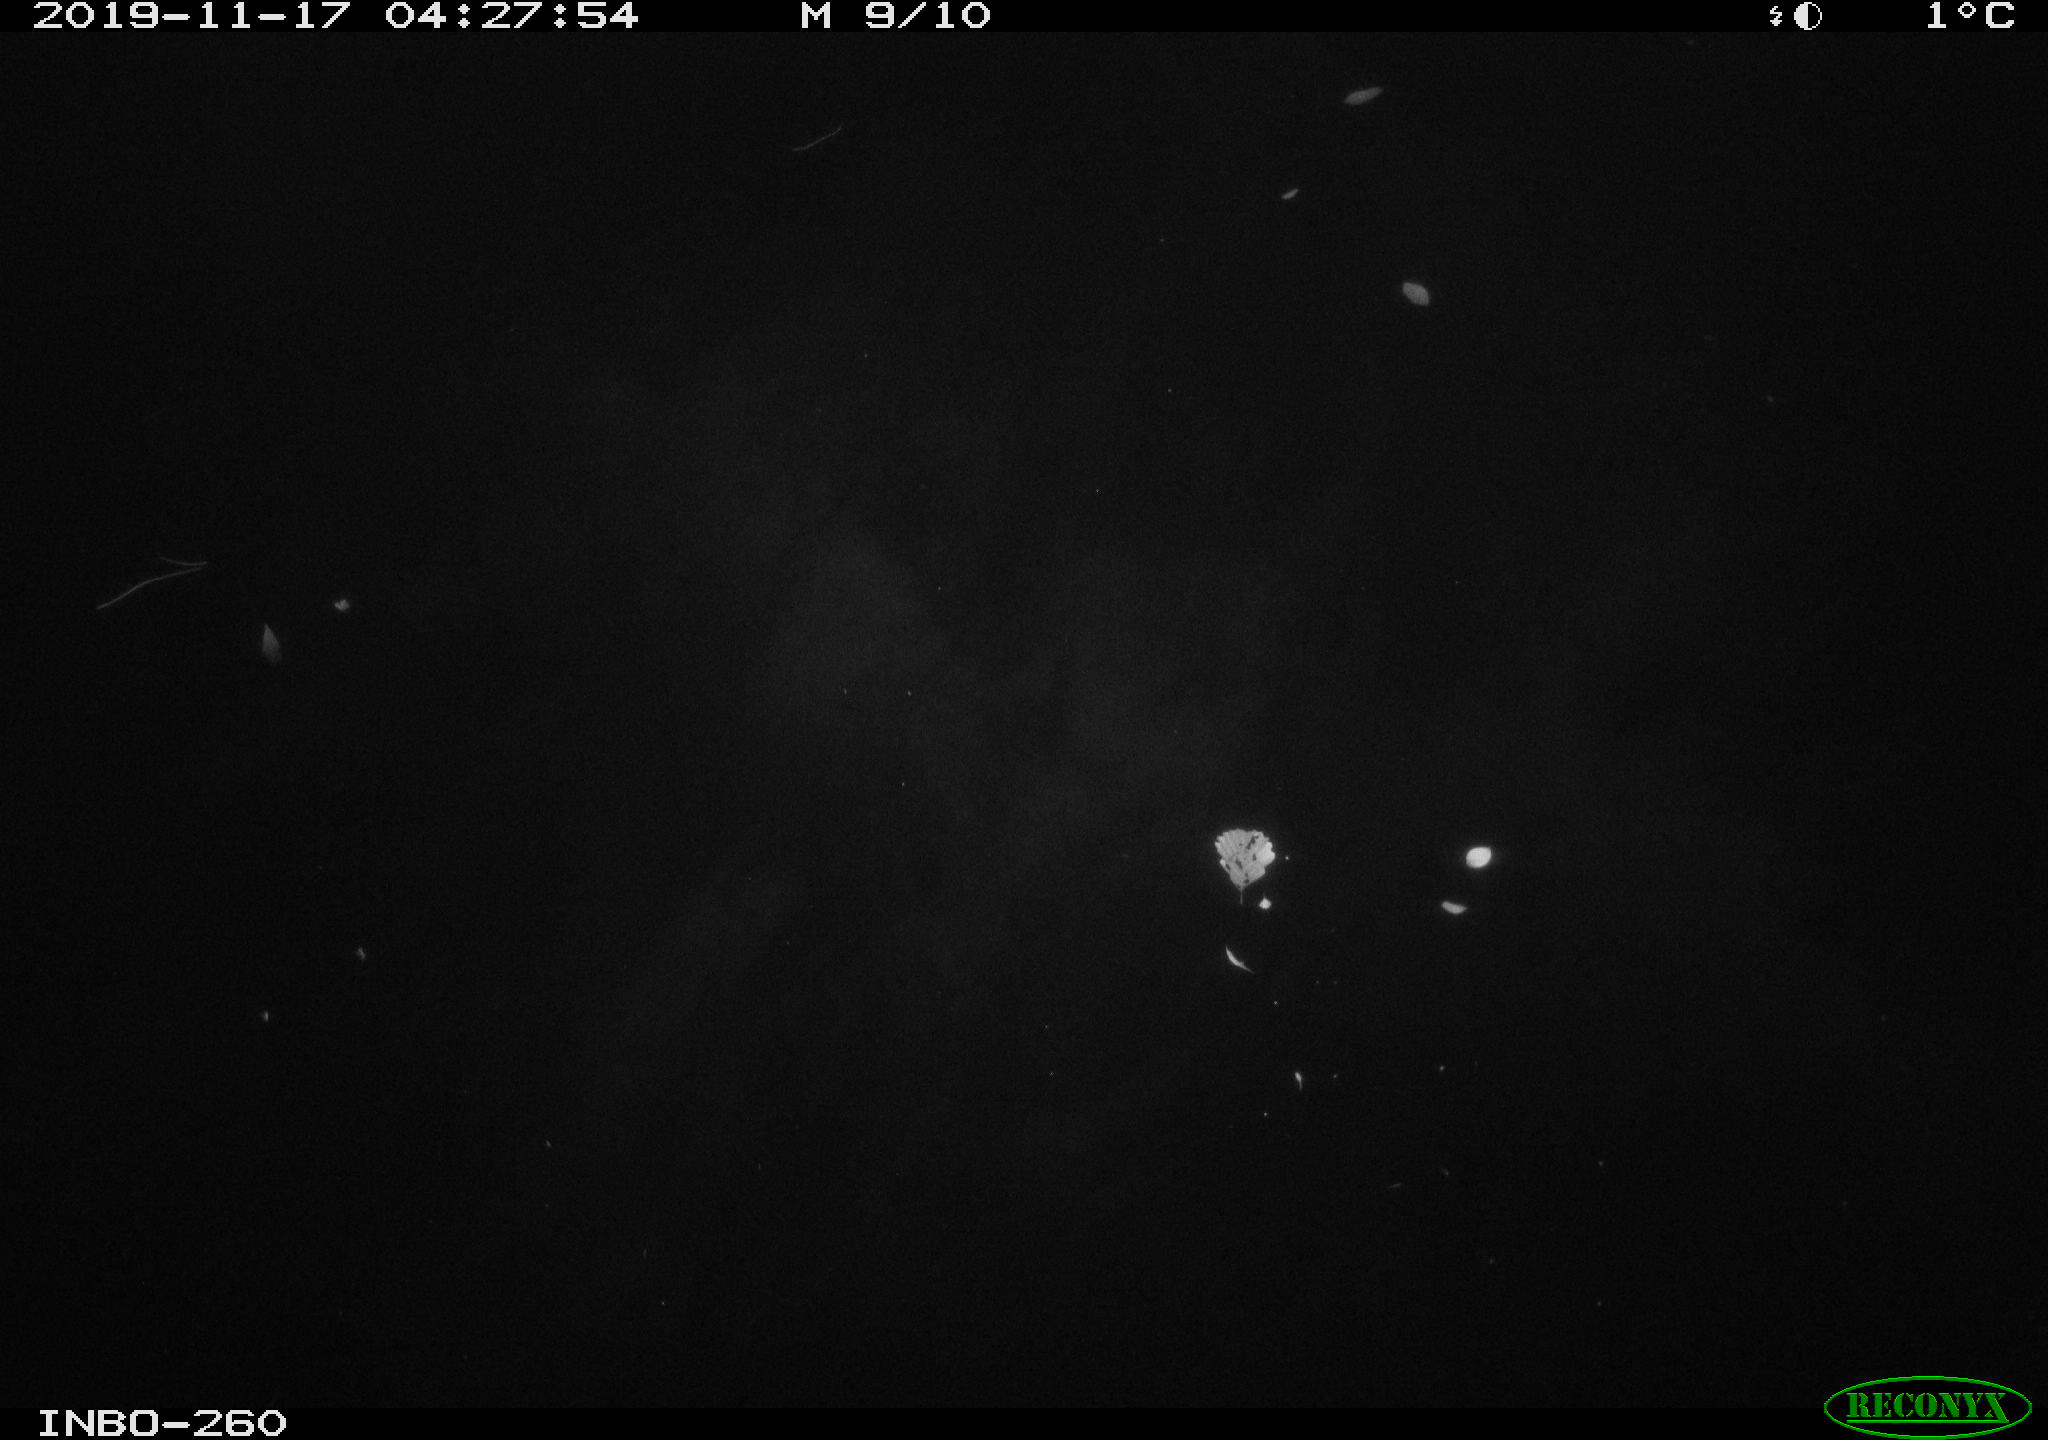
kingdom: Animalia
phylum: Chordata
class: Aves
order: Anseriformes
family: Anatidae
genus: Anas
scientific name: Anas platyrhynchos
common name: Mallard
